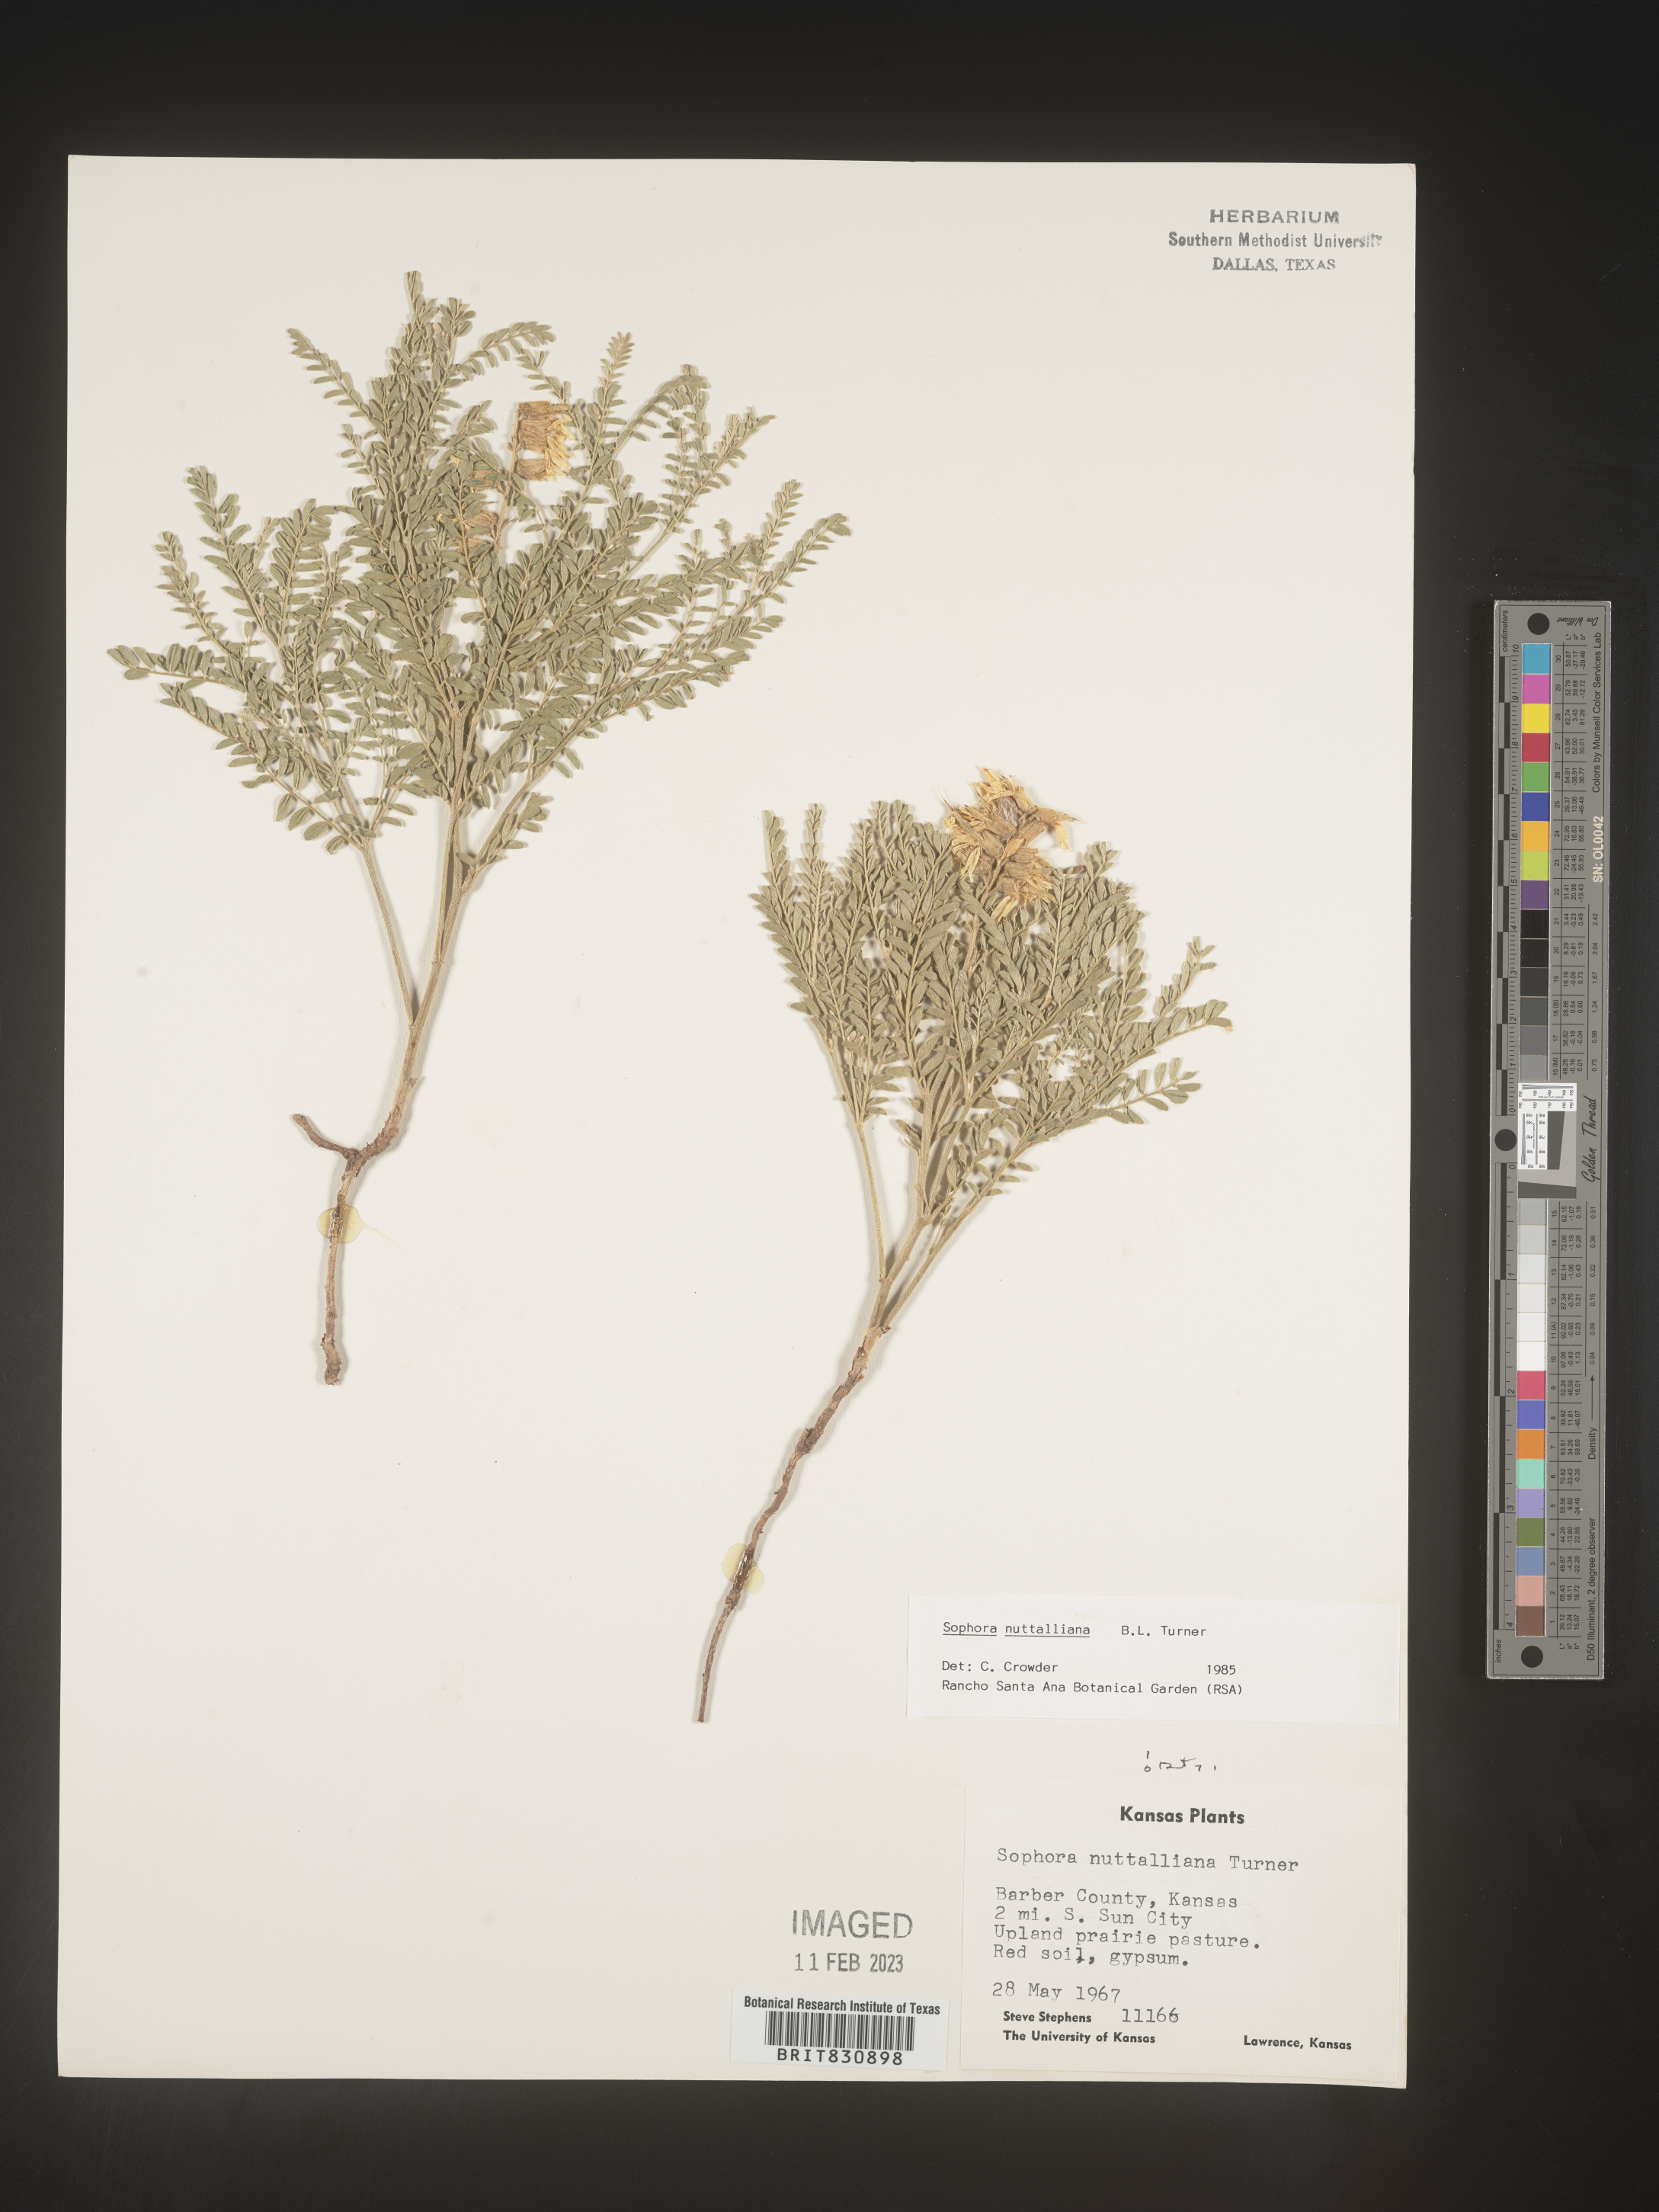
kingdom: Plantae
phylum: Tracheophyta
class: Magnoliopsida
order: Fabales
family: Fabaceae
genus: Sophora
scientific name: Sophora nuttalliana
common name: Silky sophora
